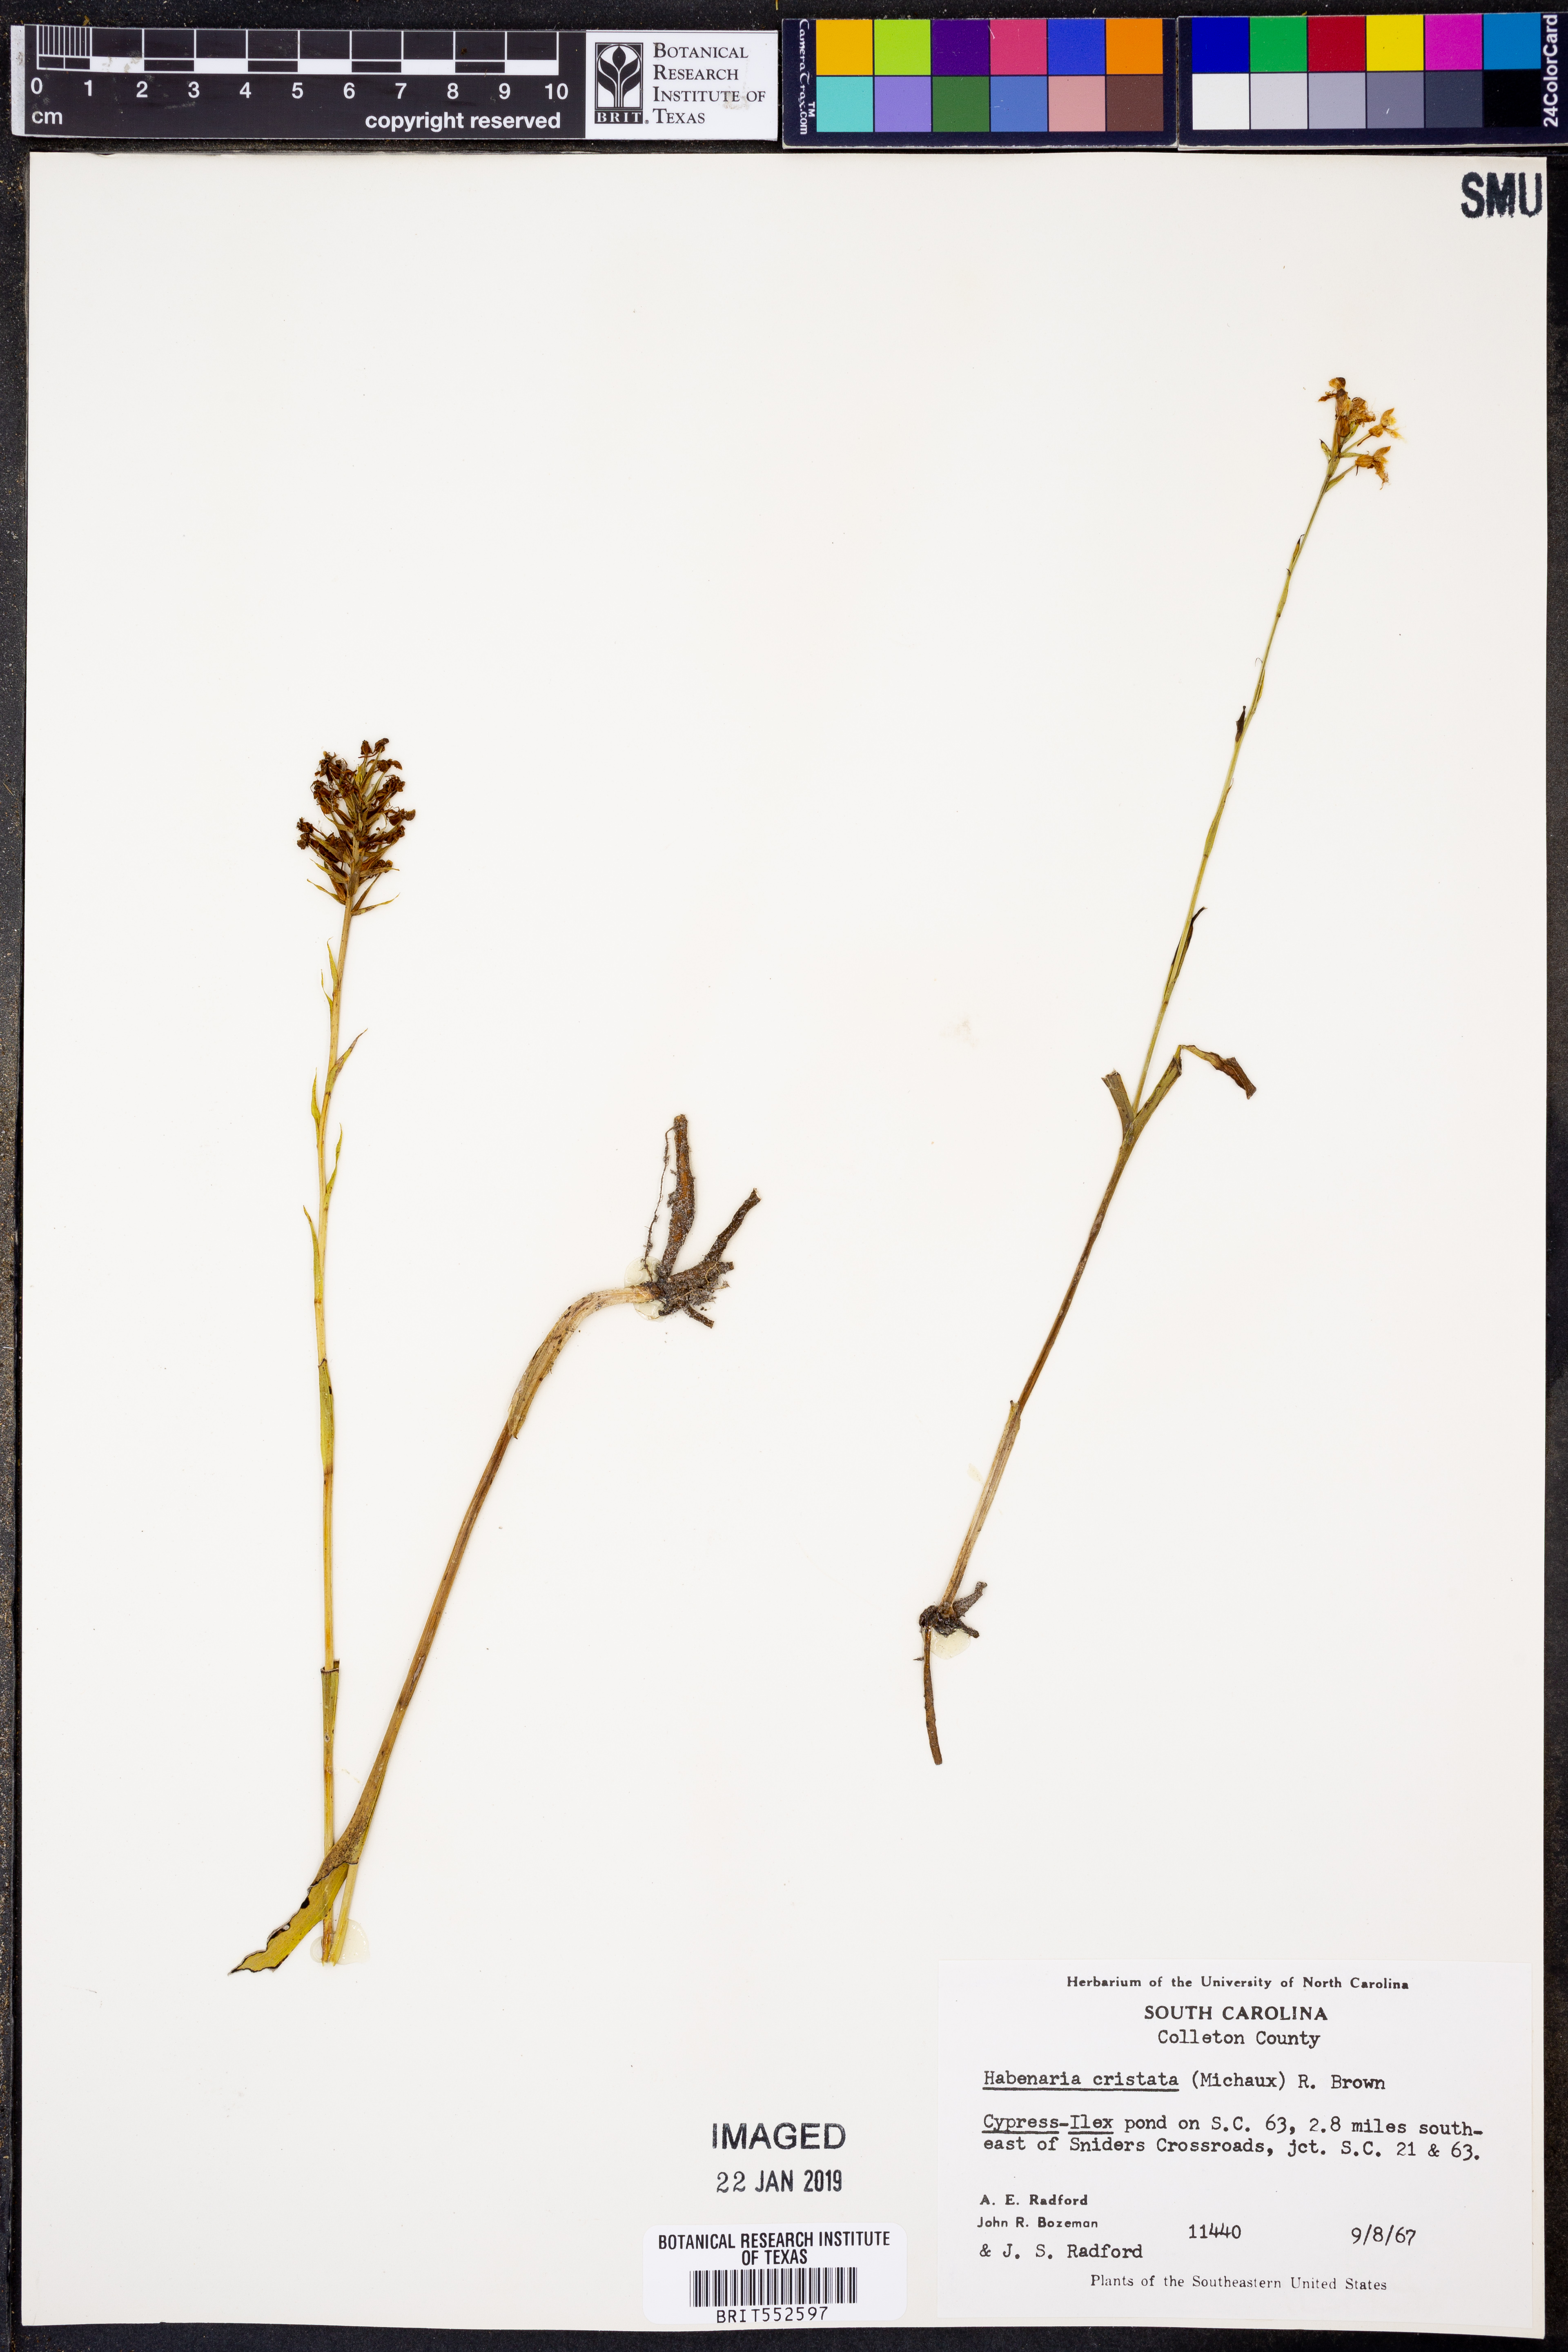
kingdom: Plantae
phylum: Tracheophyta
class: Liliopsida
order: Asparagales
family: Orchidaceae
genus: Platanthera
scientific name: Platanthera cristata
